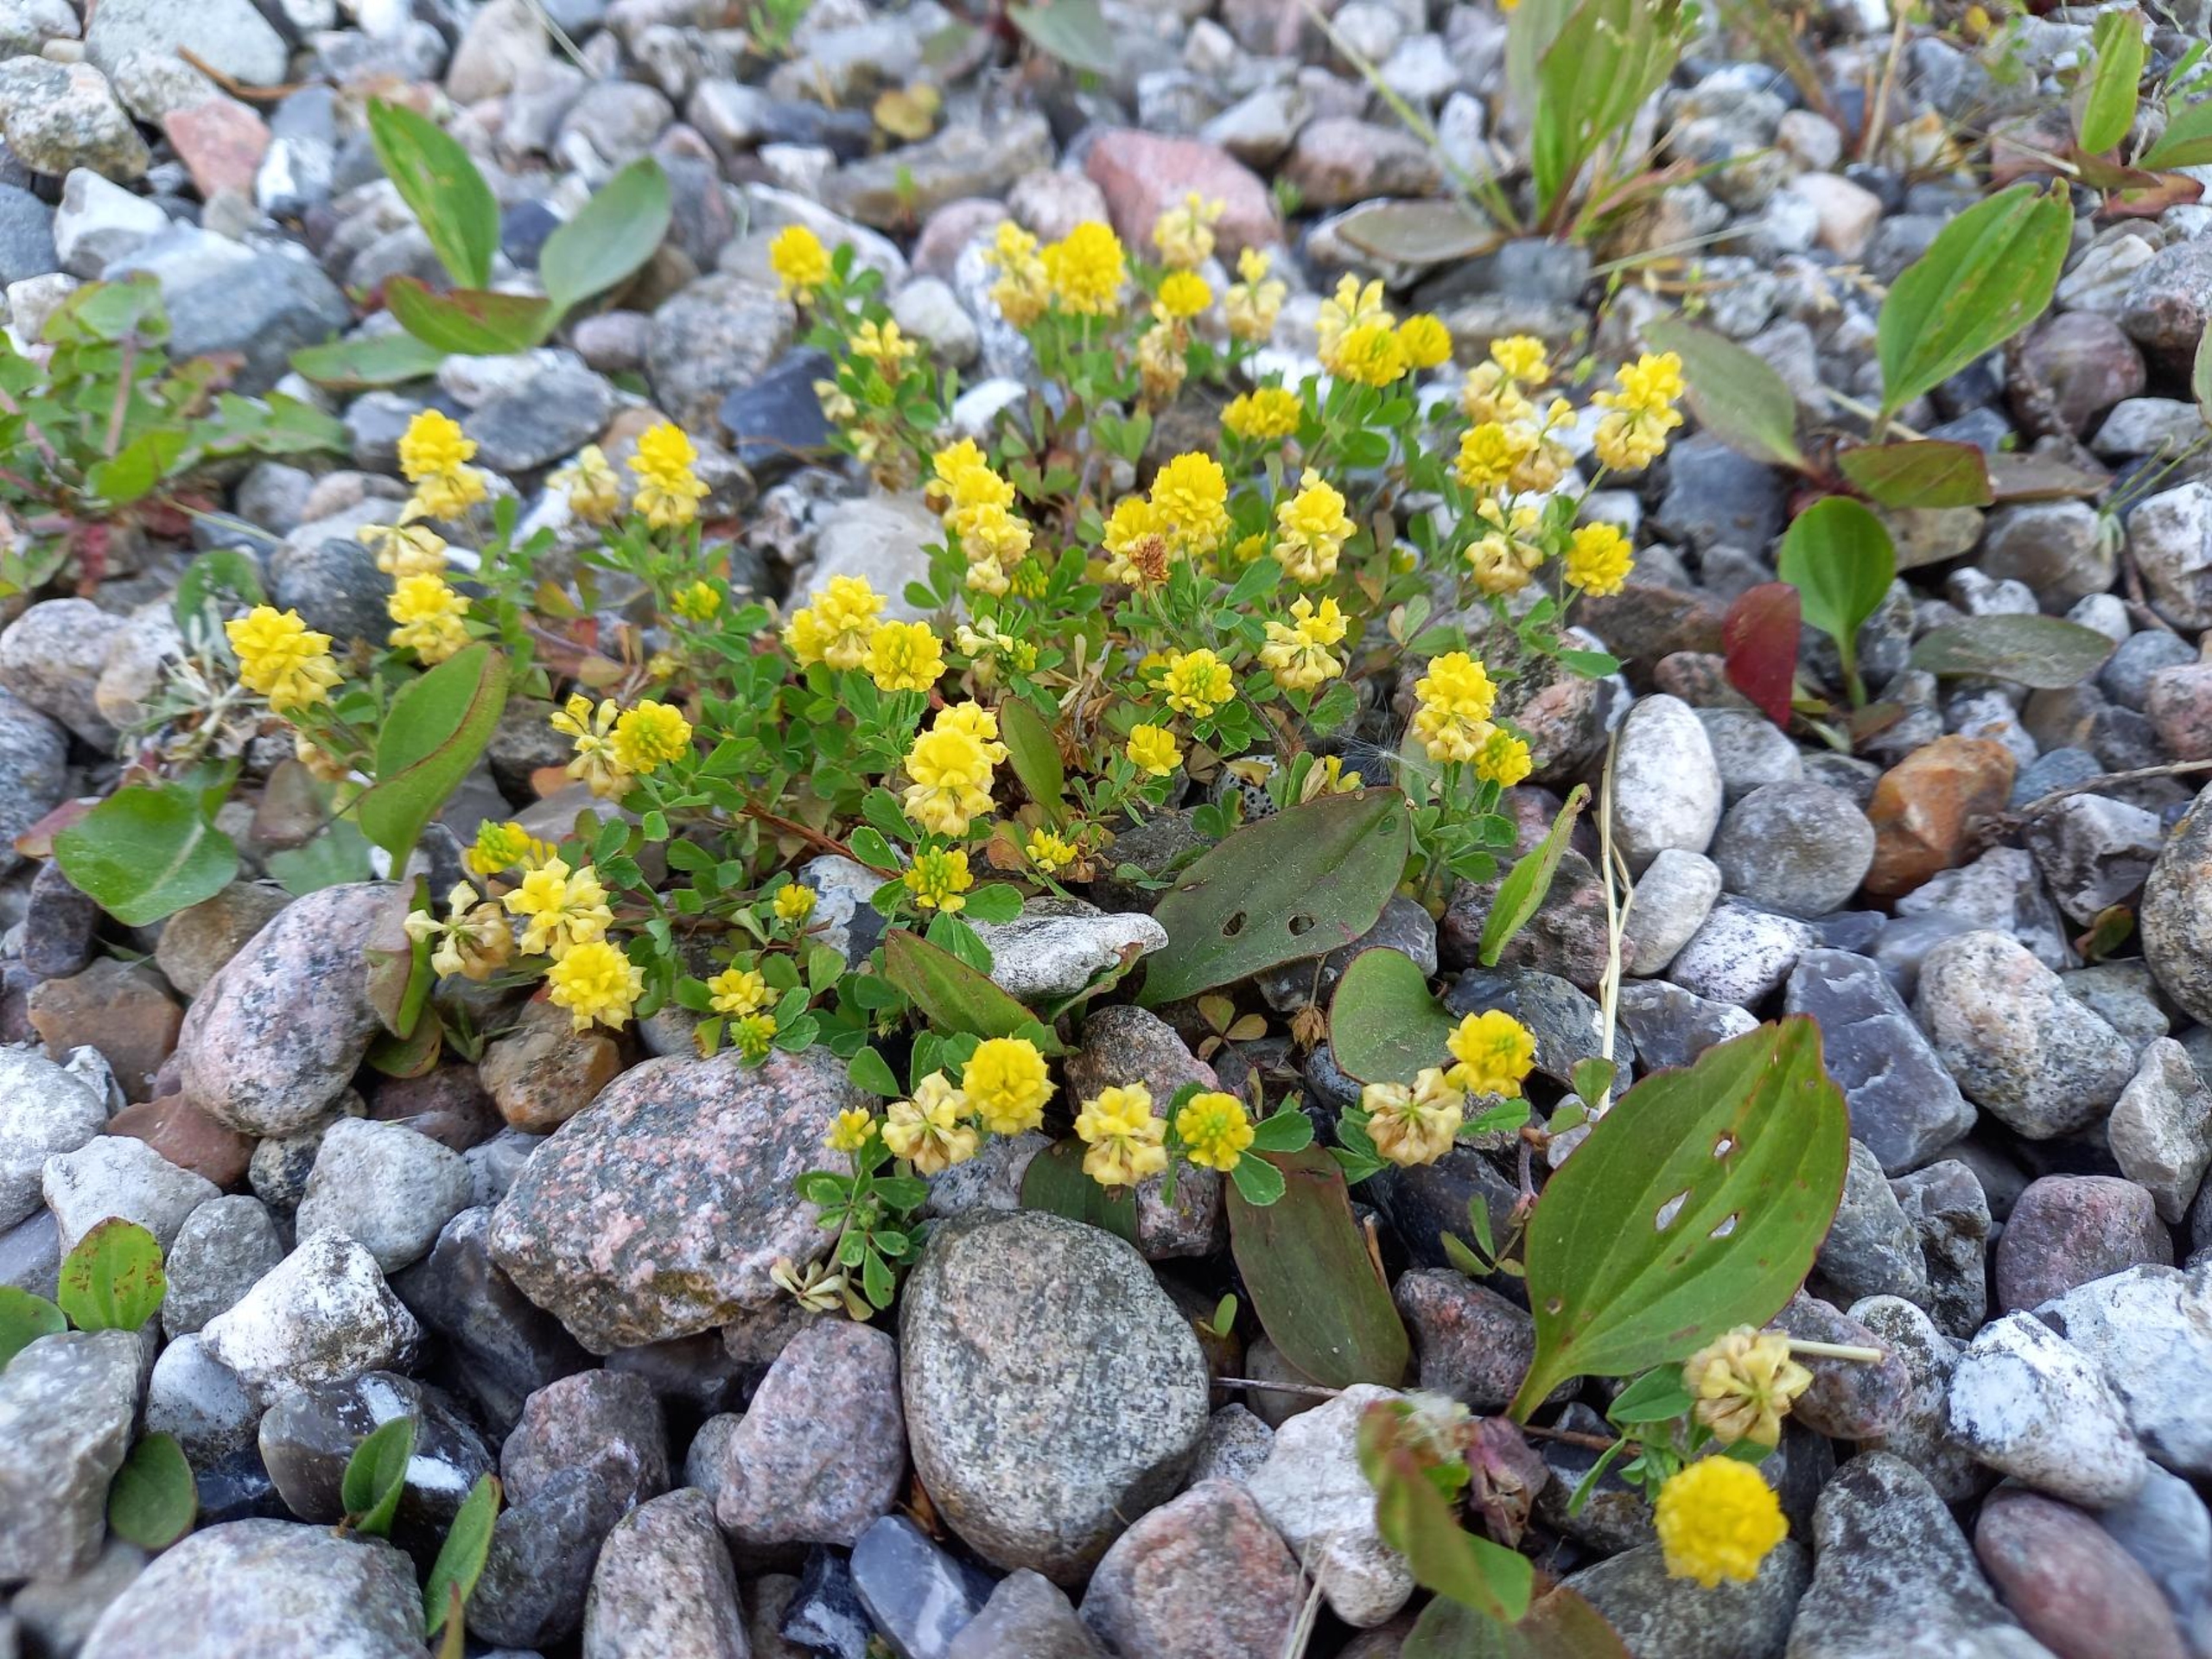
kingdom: Plantae
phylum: Tracheophyta
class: Magnoliopsida
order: Fabales
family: Fabaceae
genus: Trifolium
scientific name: Trifolium campestre
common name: Gul kløver
